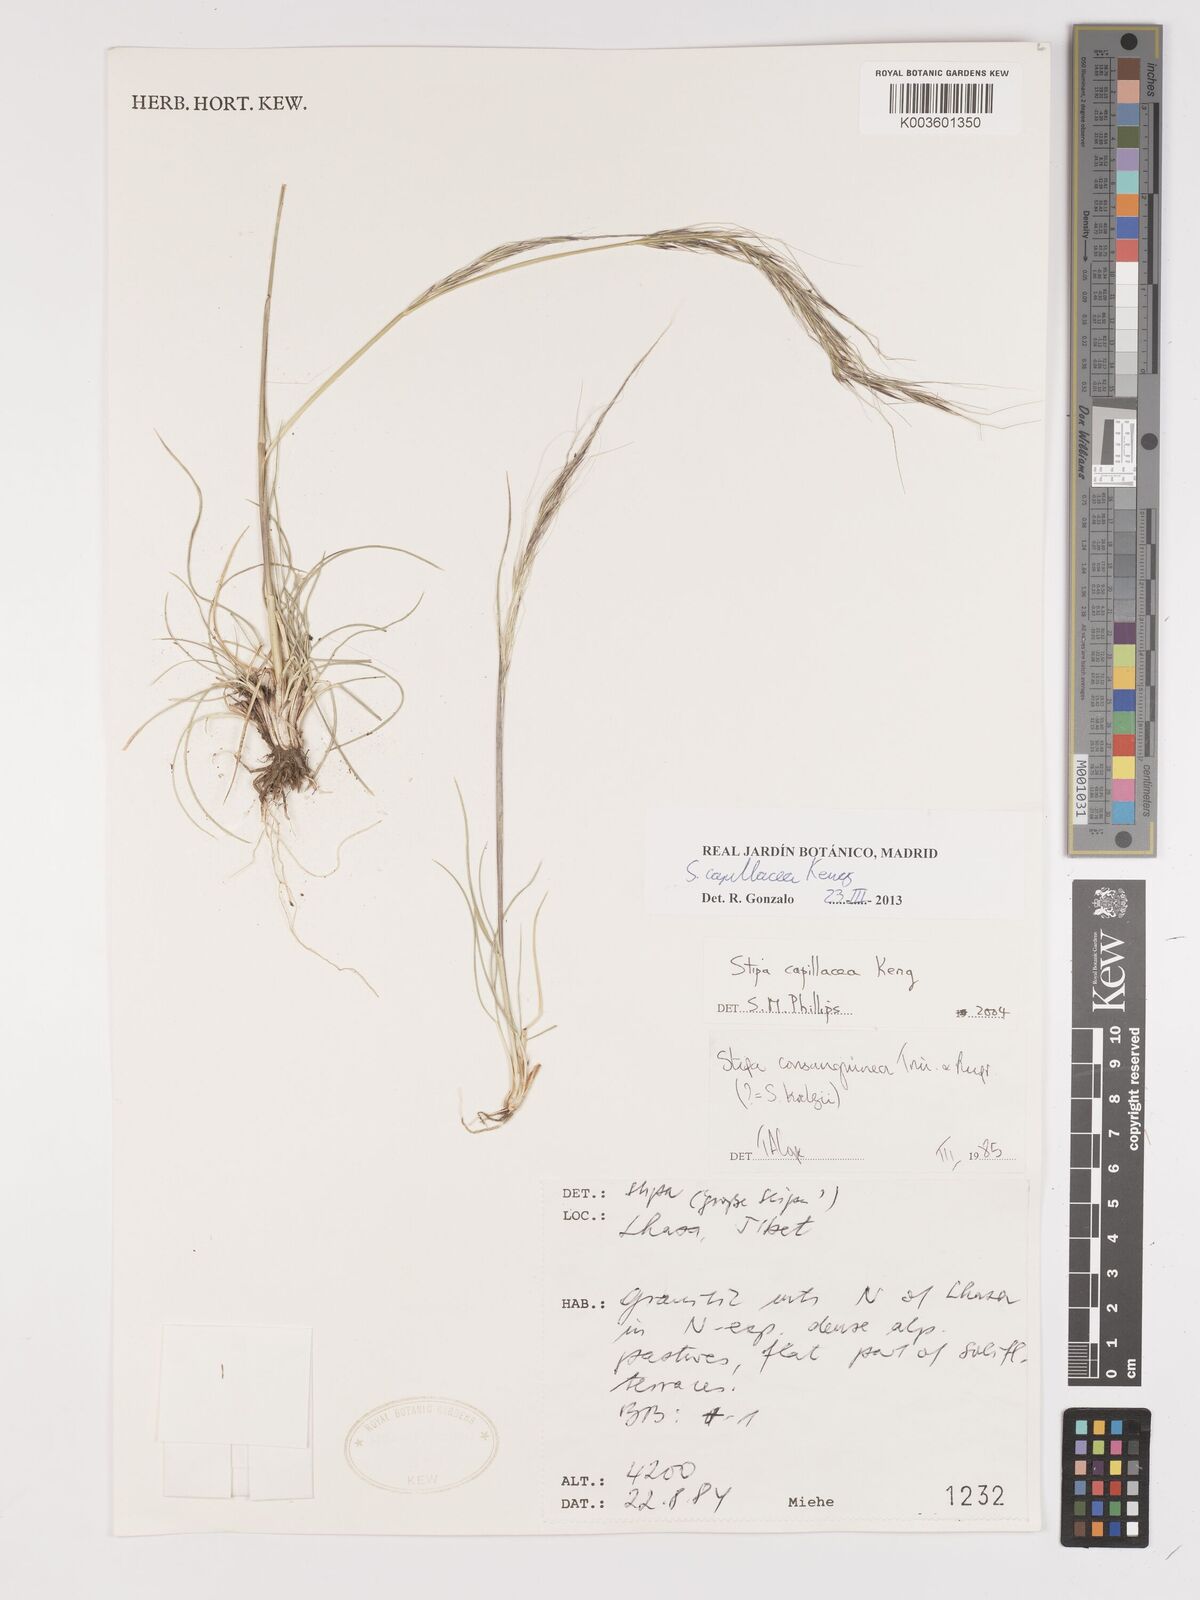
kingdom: Plantae
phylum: Tracheophyta
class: Liliopsida
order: Poales
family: Poaceae
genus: Stipa
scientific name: Stipa capillata
